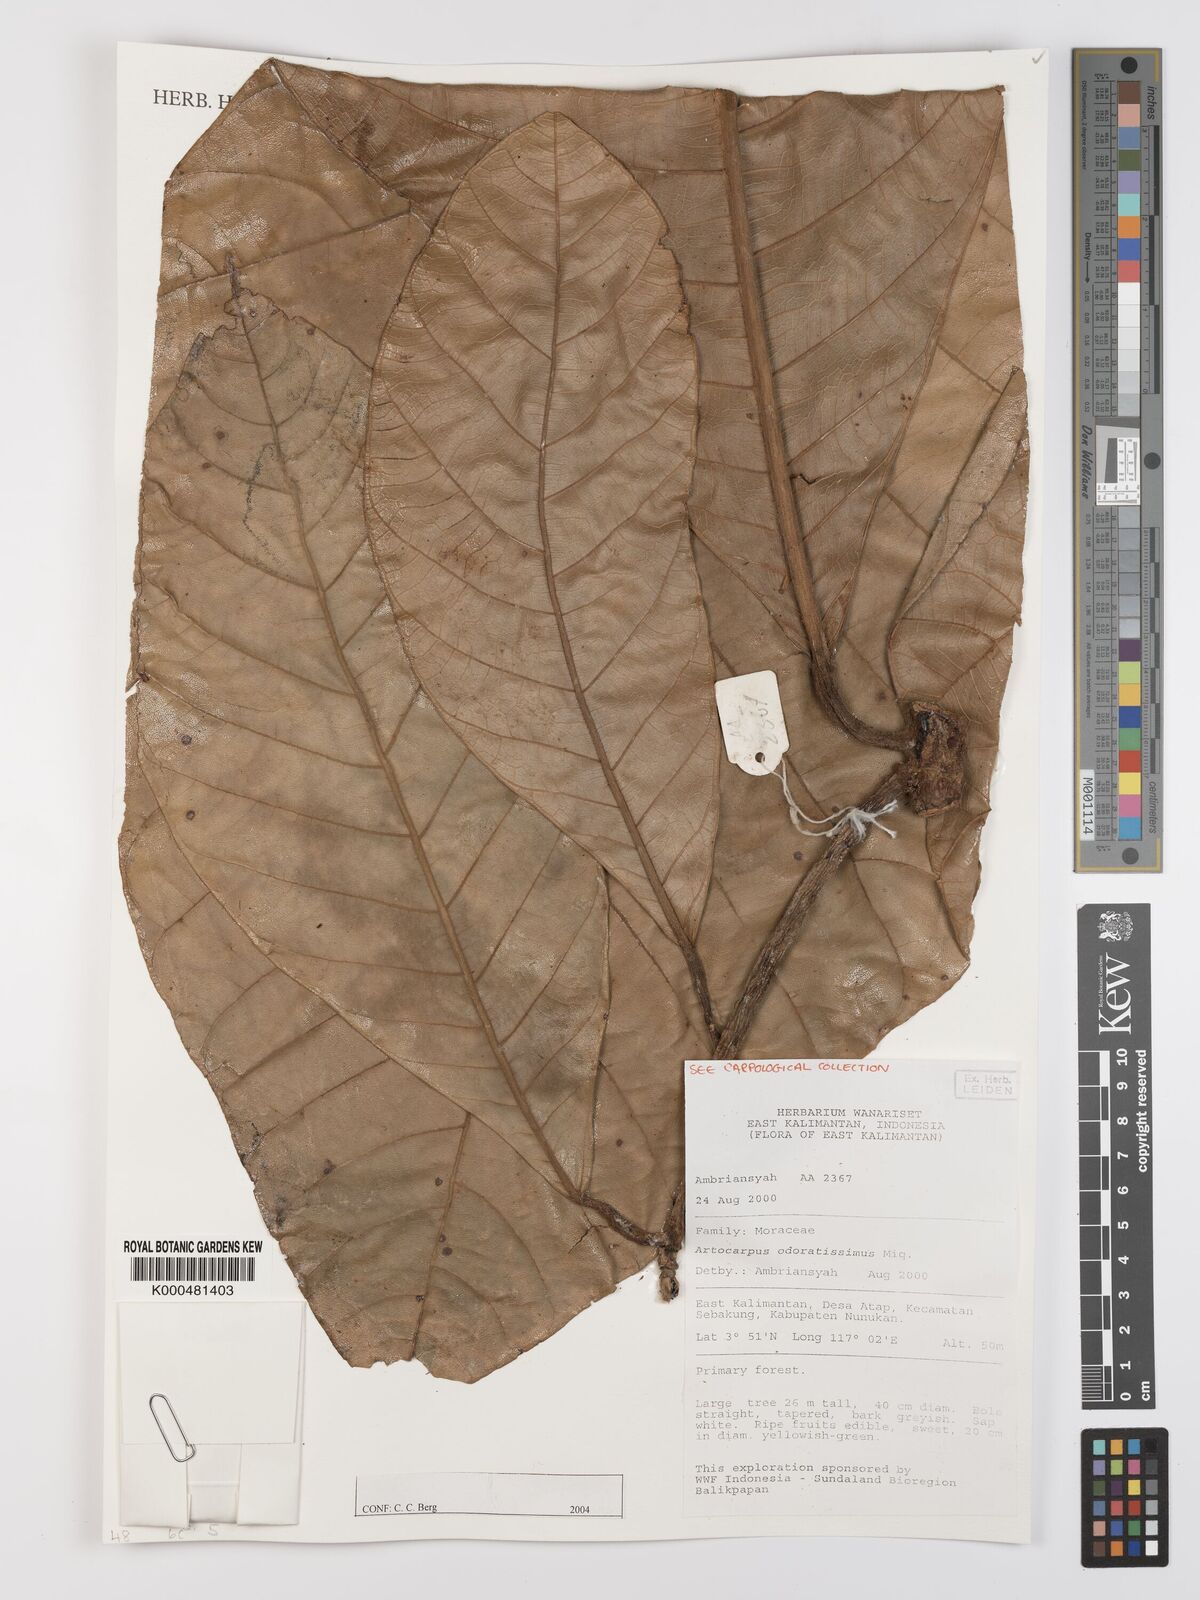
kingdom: Plantae
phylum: Tracheophyta
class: Magnoliopsida
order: Rosales
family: Moraceae
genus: Artocarpus
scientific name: Artocarpus odoratissimus
